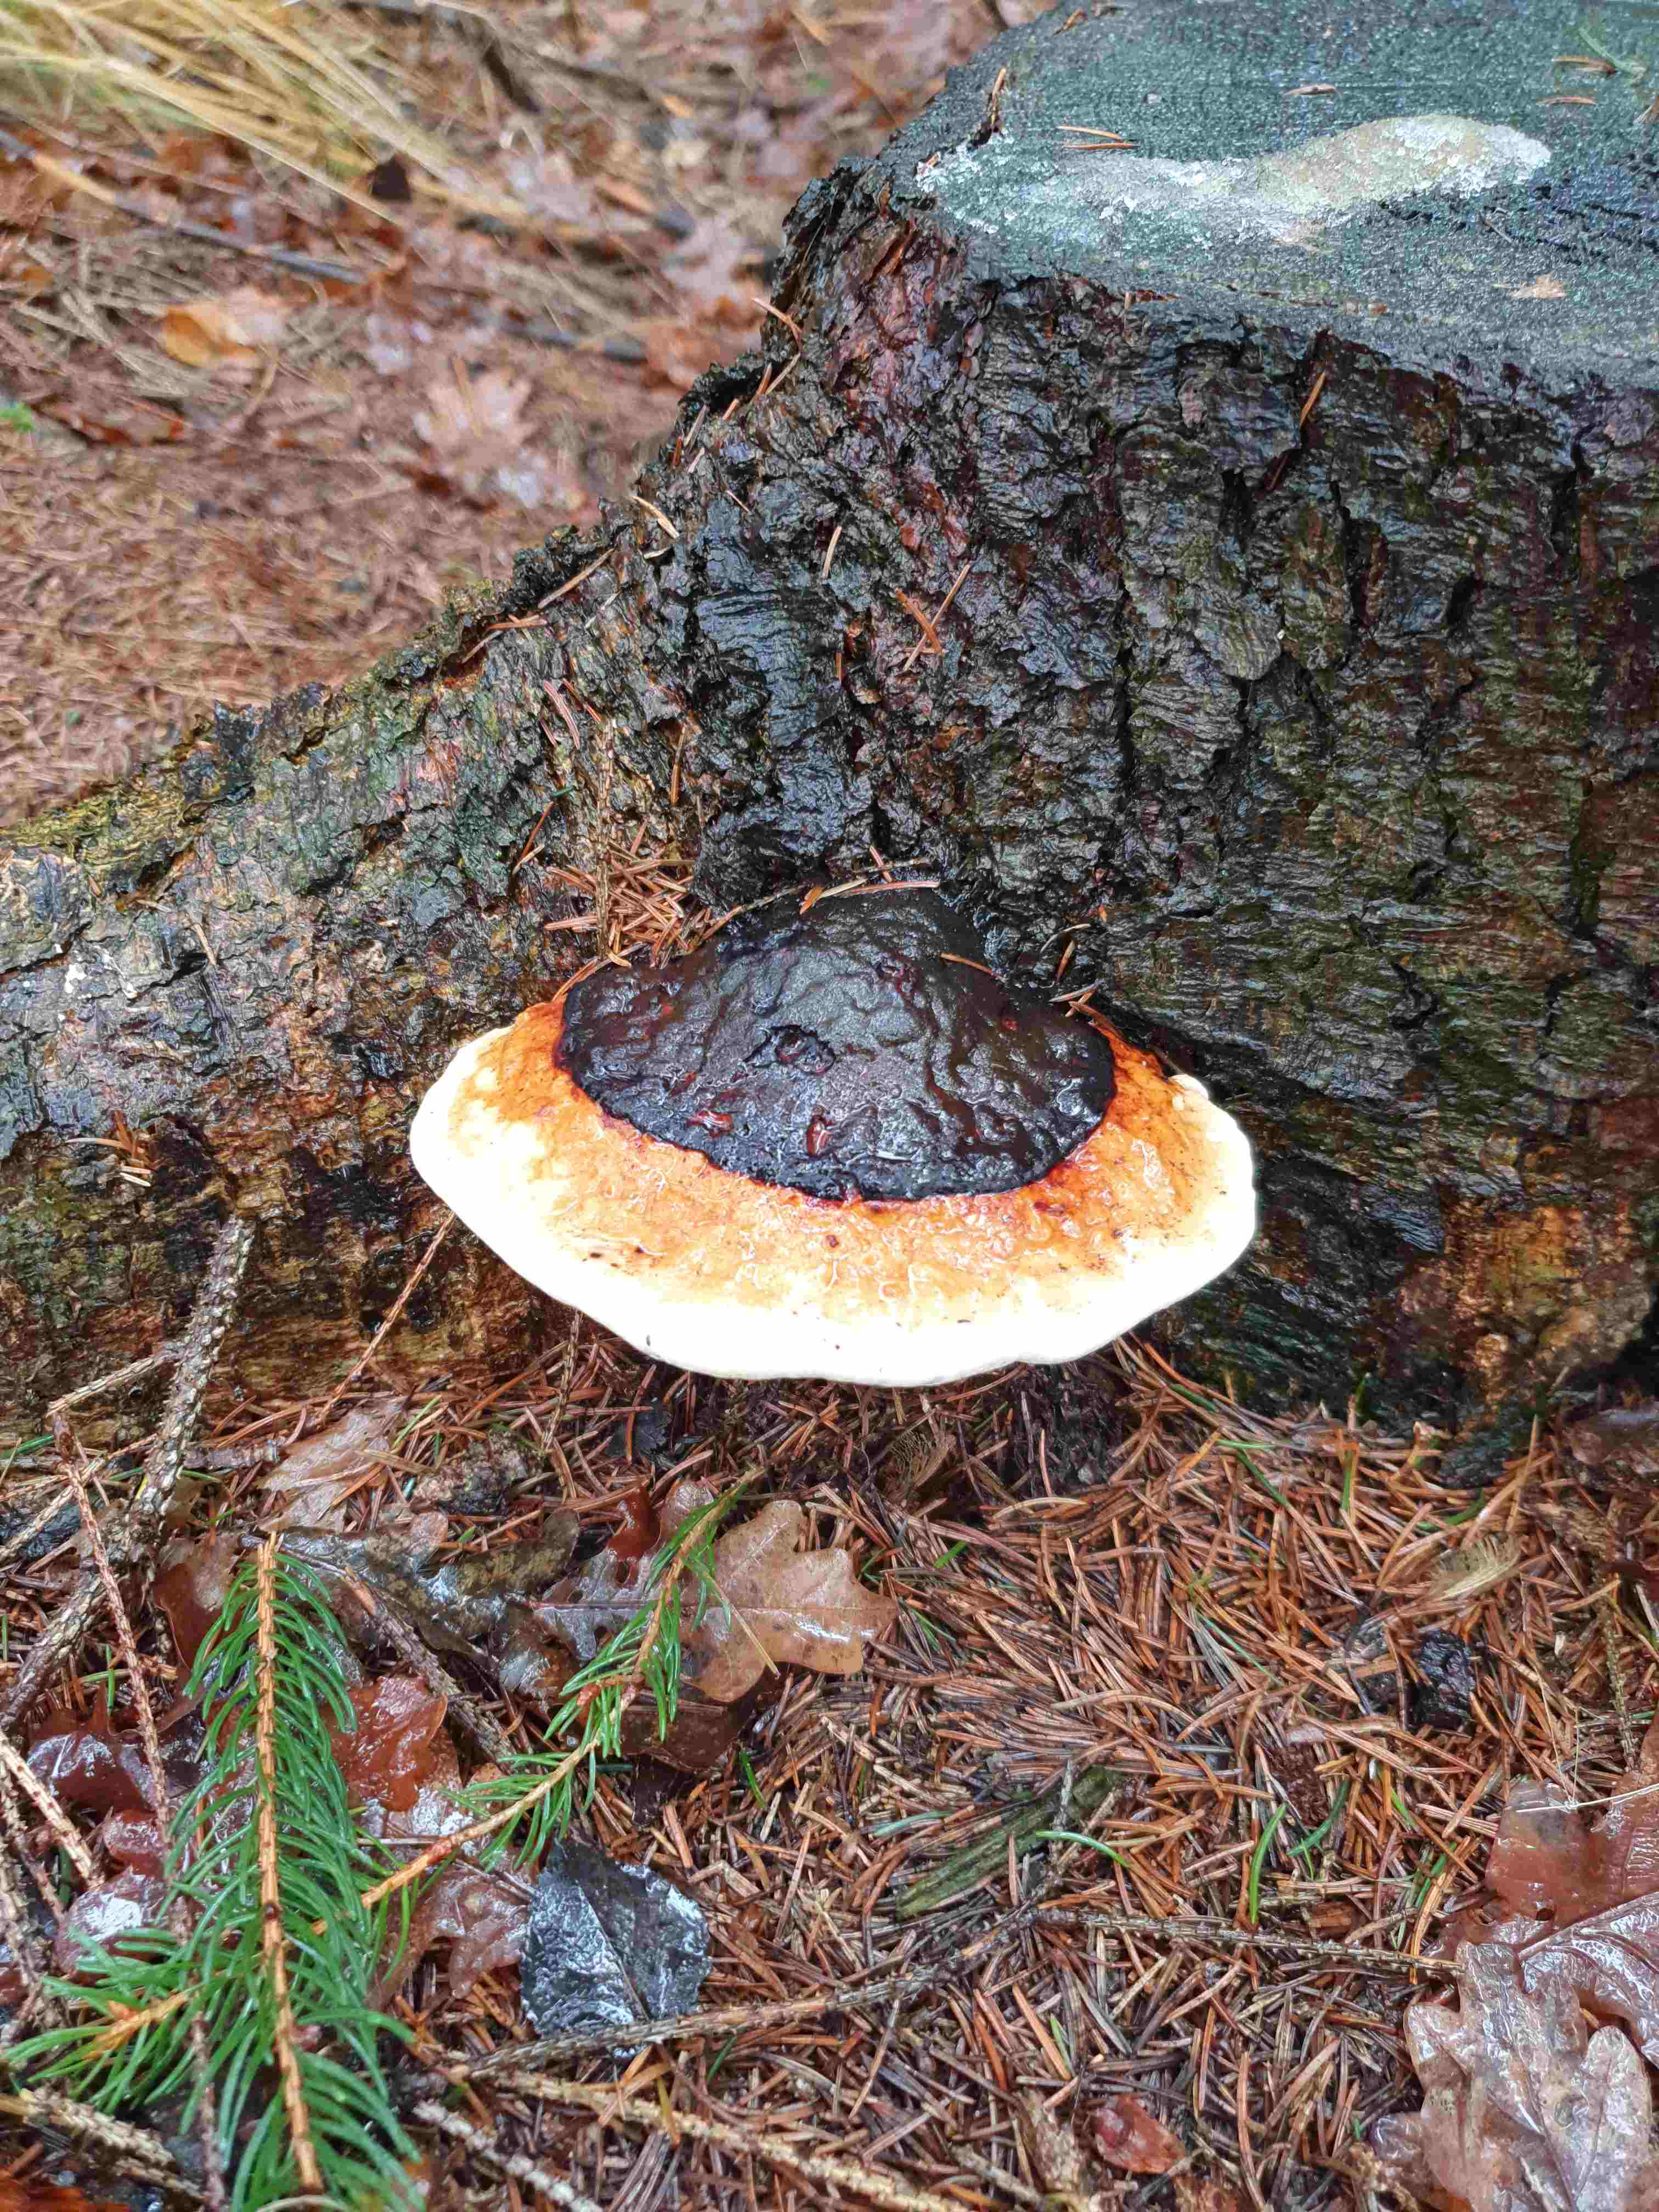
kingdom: Fungi
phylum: Basidiomycota
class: Agaricomycetes
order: Polyporales
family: Fomitopsidaceae
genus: Fomitopsis
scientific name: Fomitopsis pinicola
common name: randbæltet hovporesvamp
